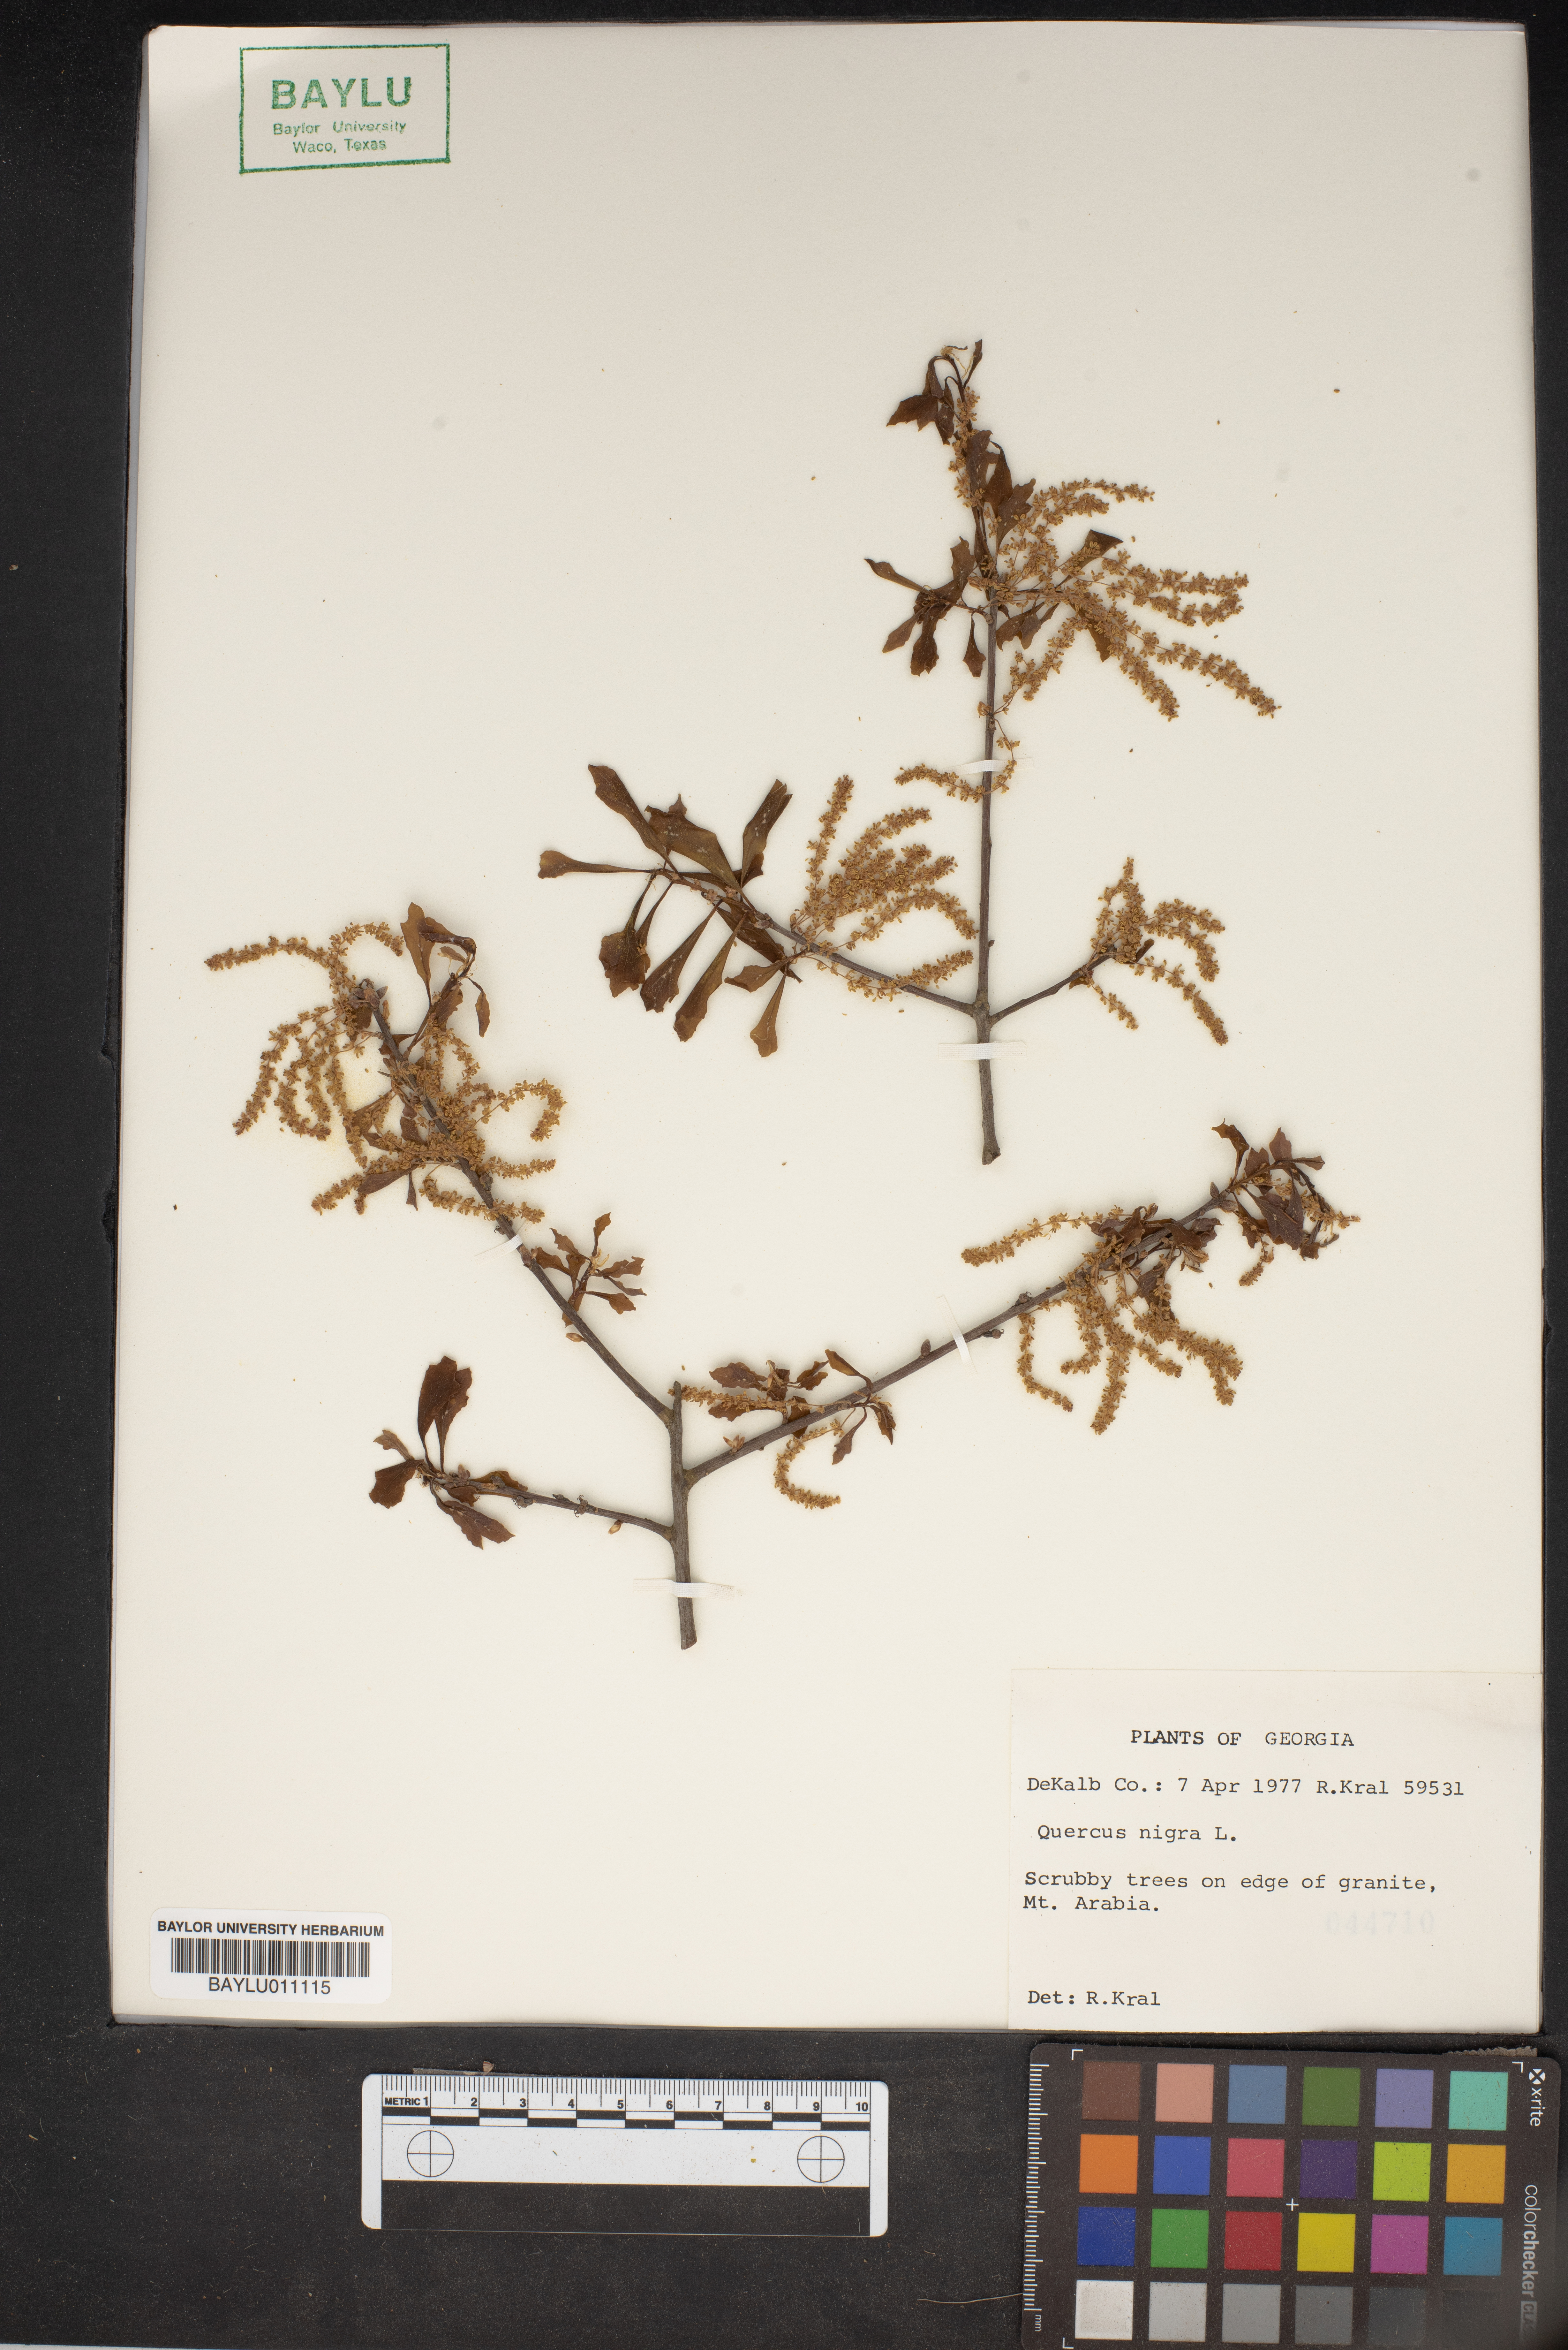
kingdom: Plantae
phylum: Tracheophyta
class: Magnoliopsida
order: Fagales
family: Fagaceae
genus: Quercus
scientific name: Quercus nigra
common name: Water oak
